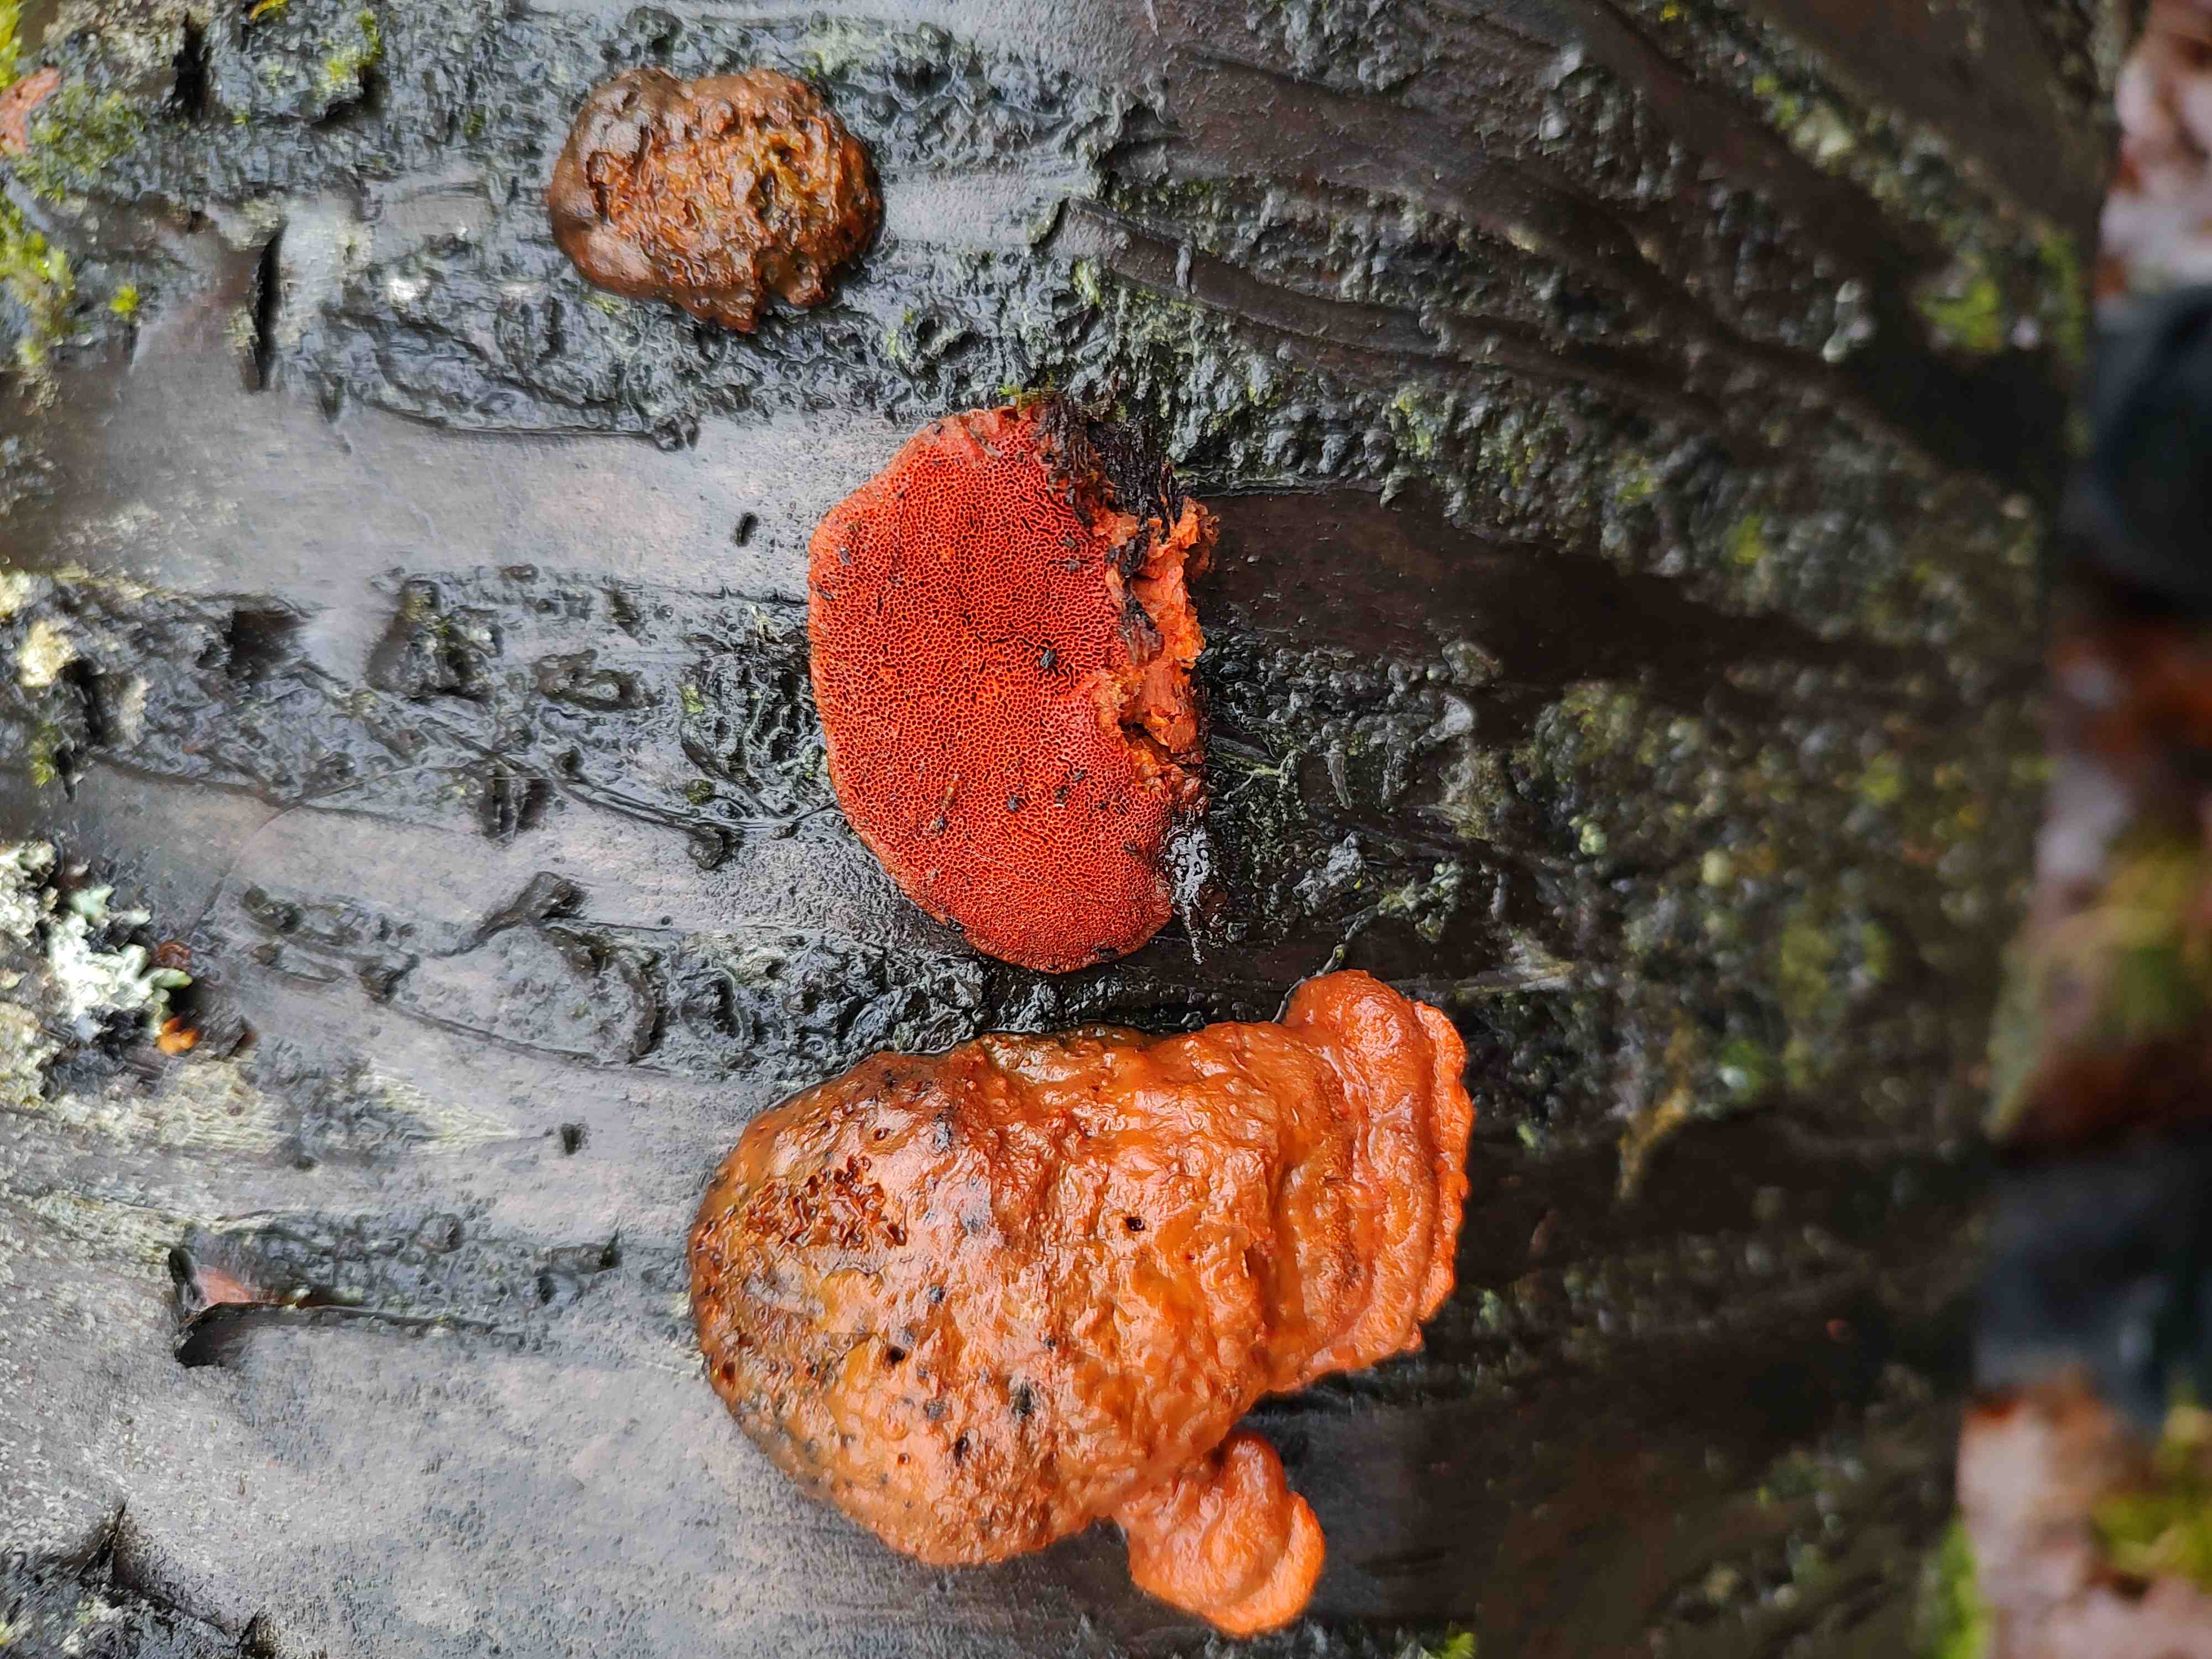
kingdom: Fungi
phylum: Basidiomycota
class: Agaricomycetes
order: Polyporales
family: Polyporaceae
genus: Trametes
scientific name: Trametes cinnabarina
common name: cinnoberporesvamp
